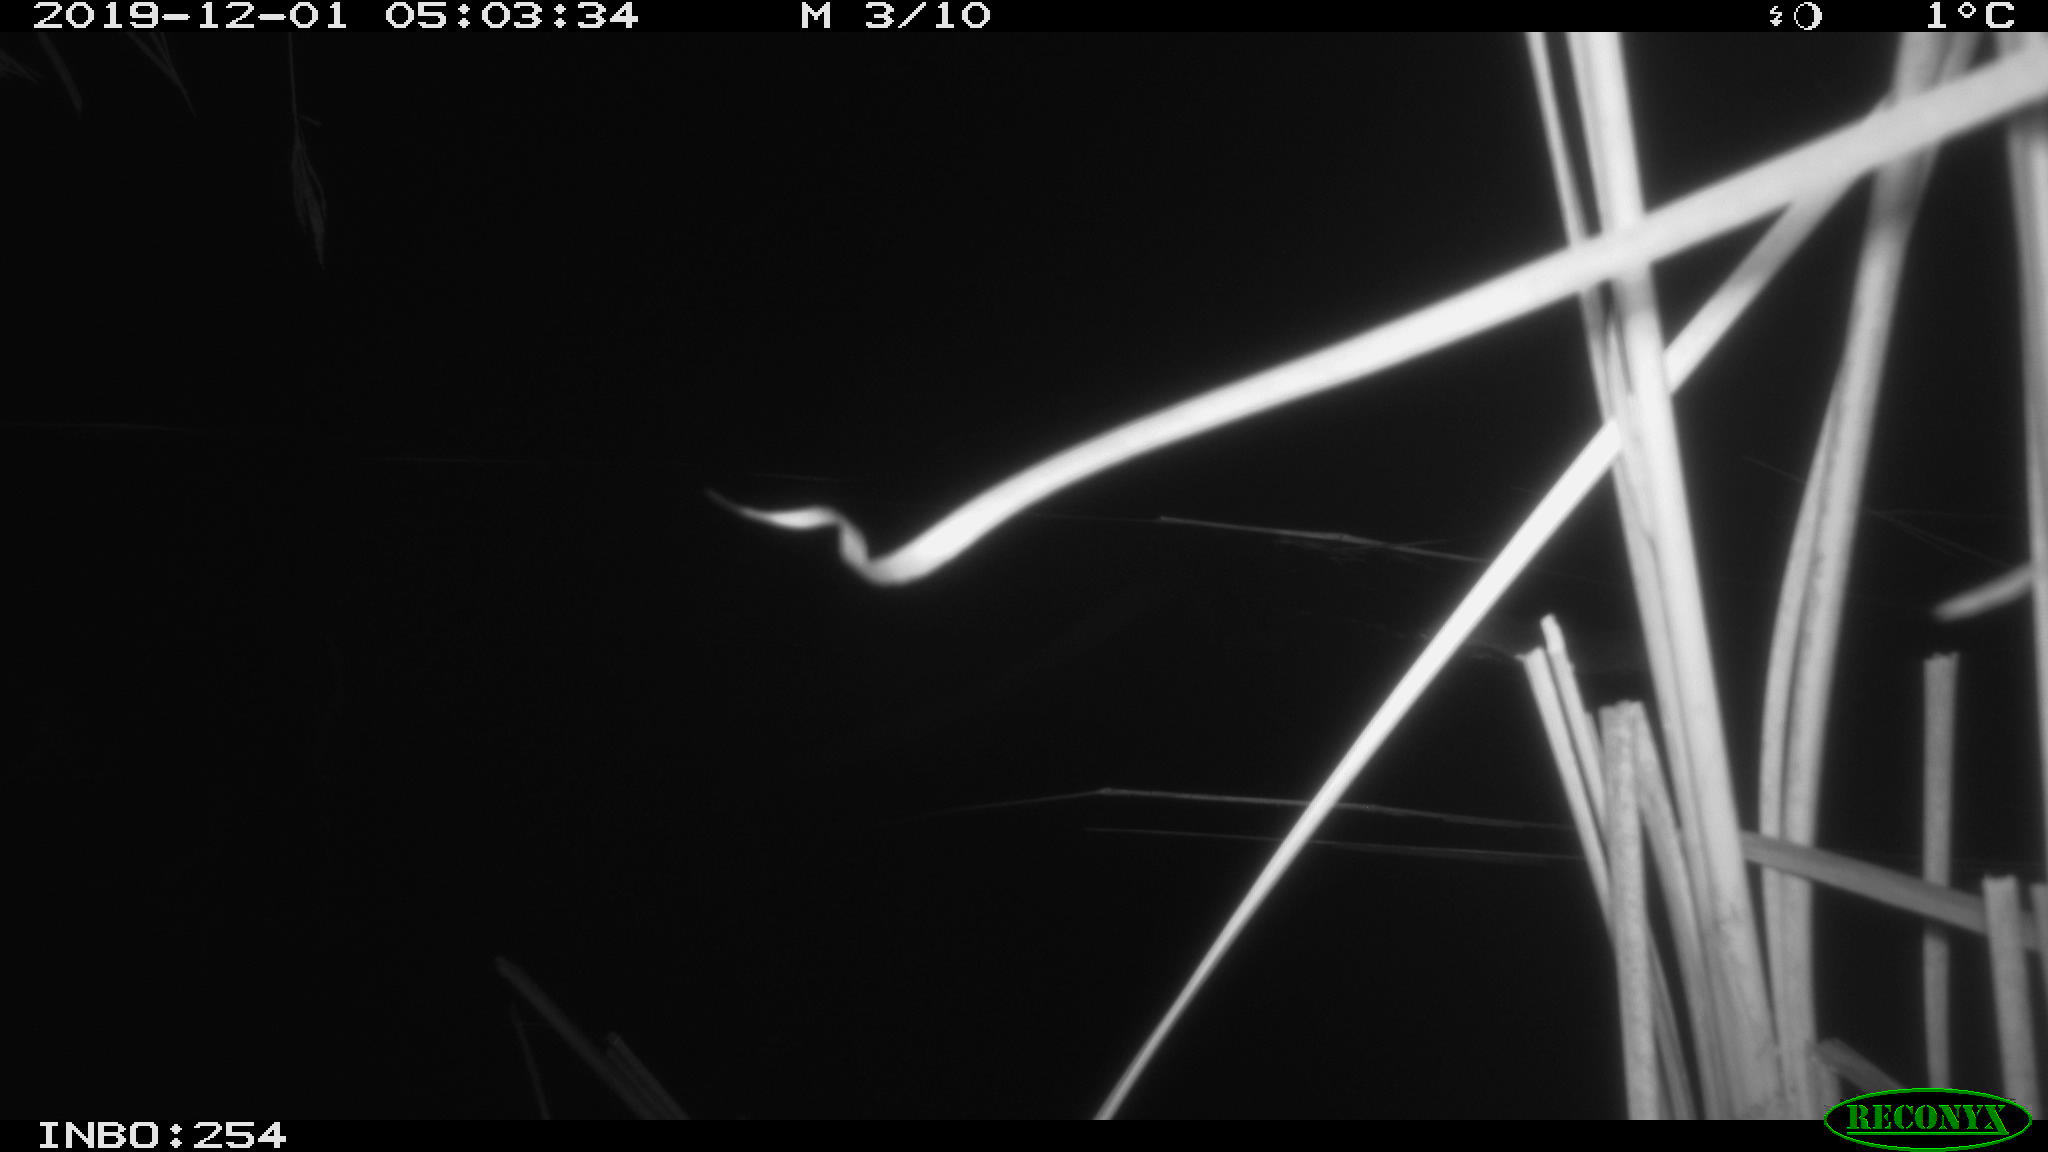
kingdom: Animalia
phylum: Chordata
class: Mammalia
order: Rodentia
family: Cricetidae
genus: Ondatra
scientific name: Ondatra zibethicus
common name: Muskrat
